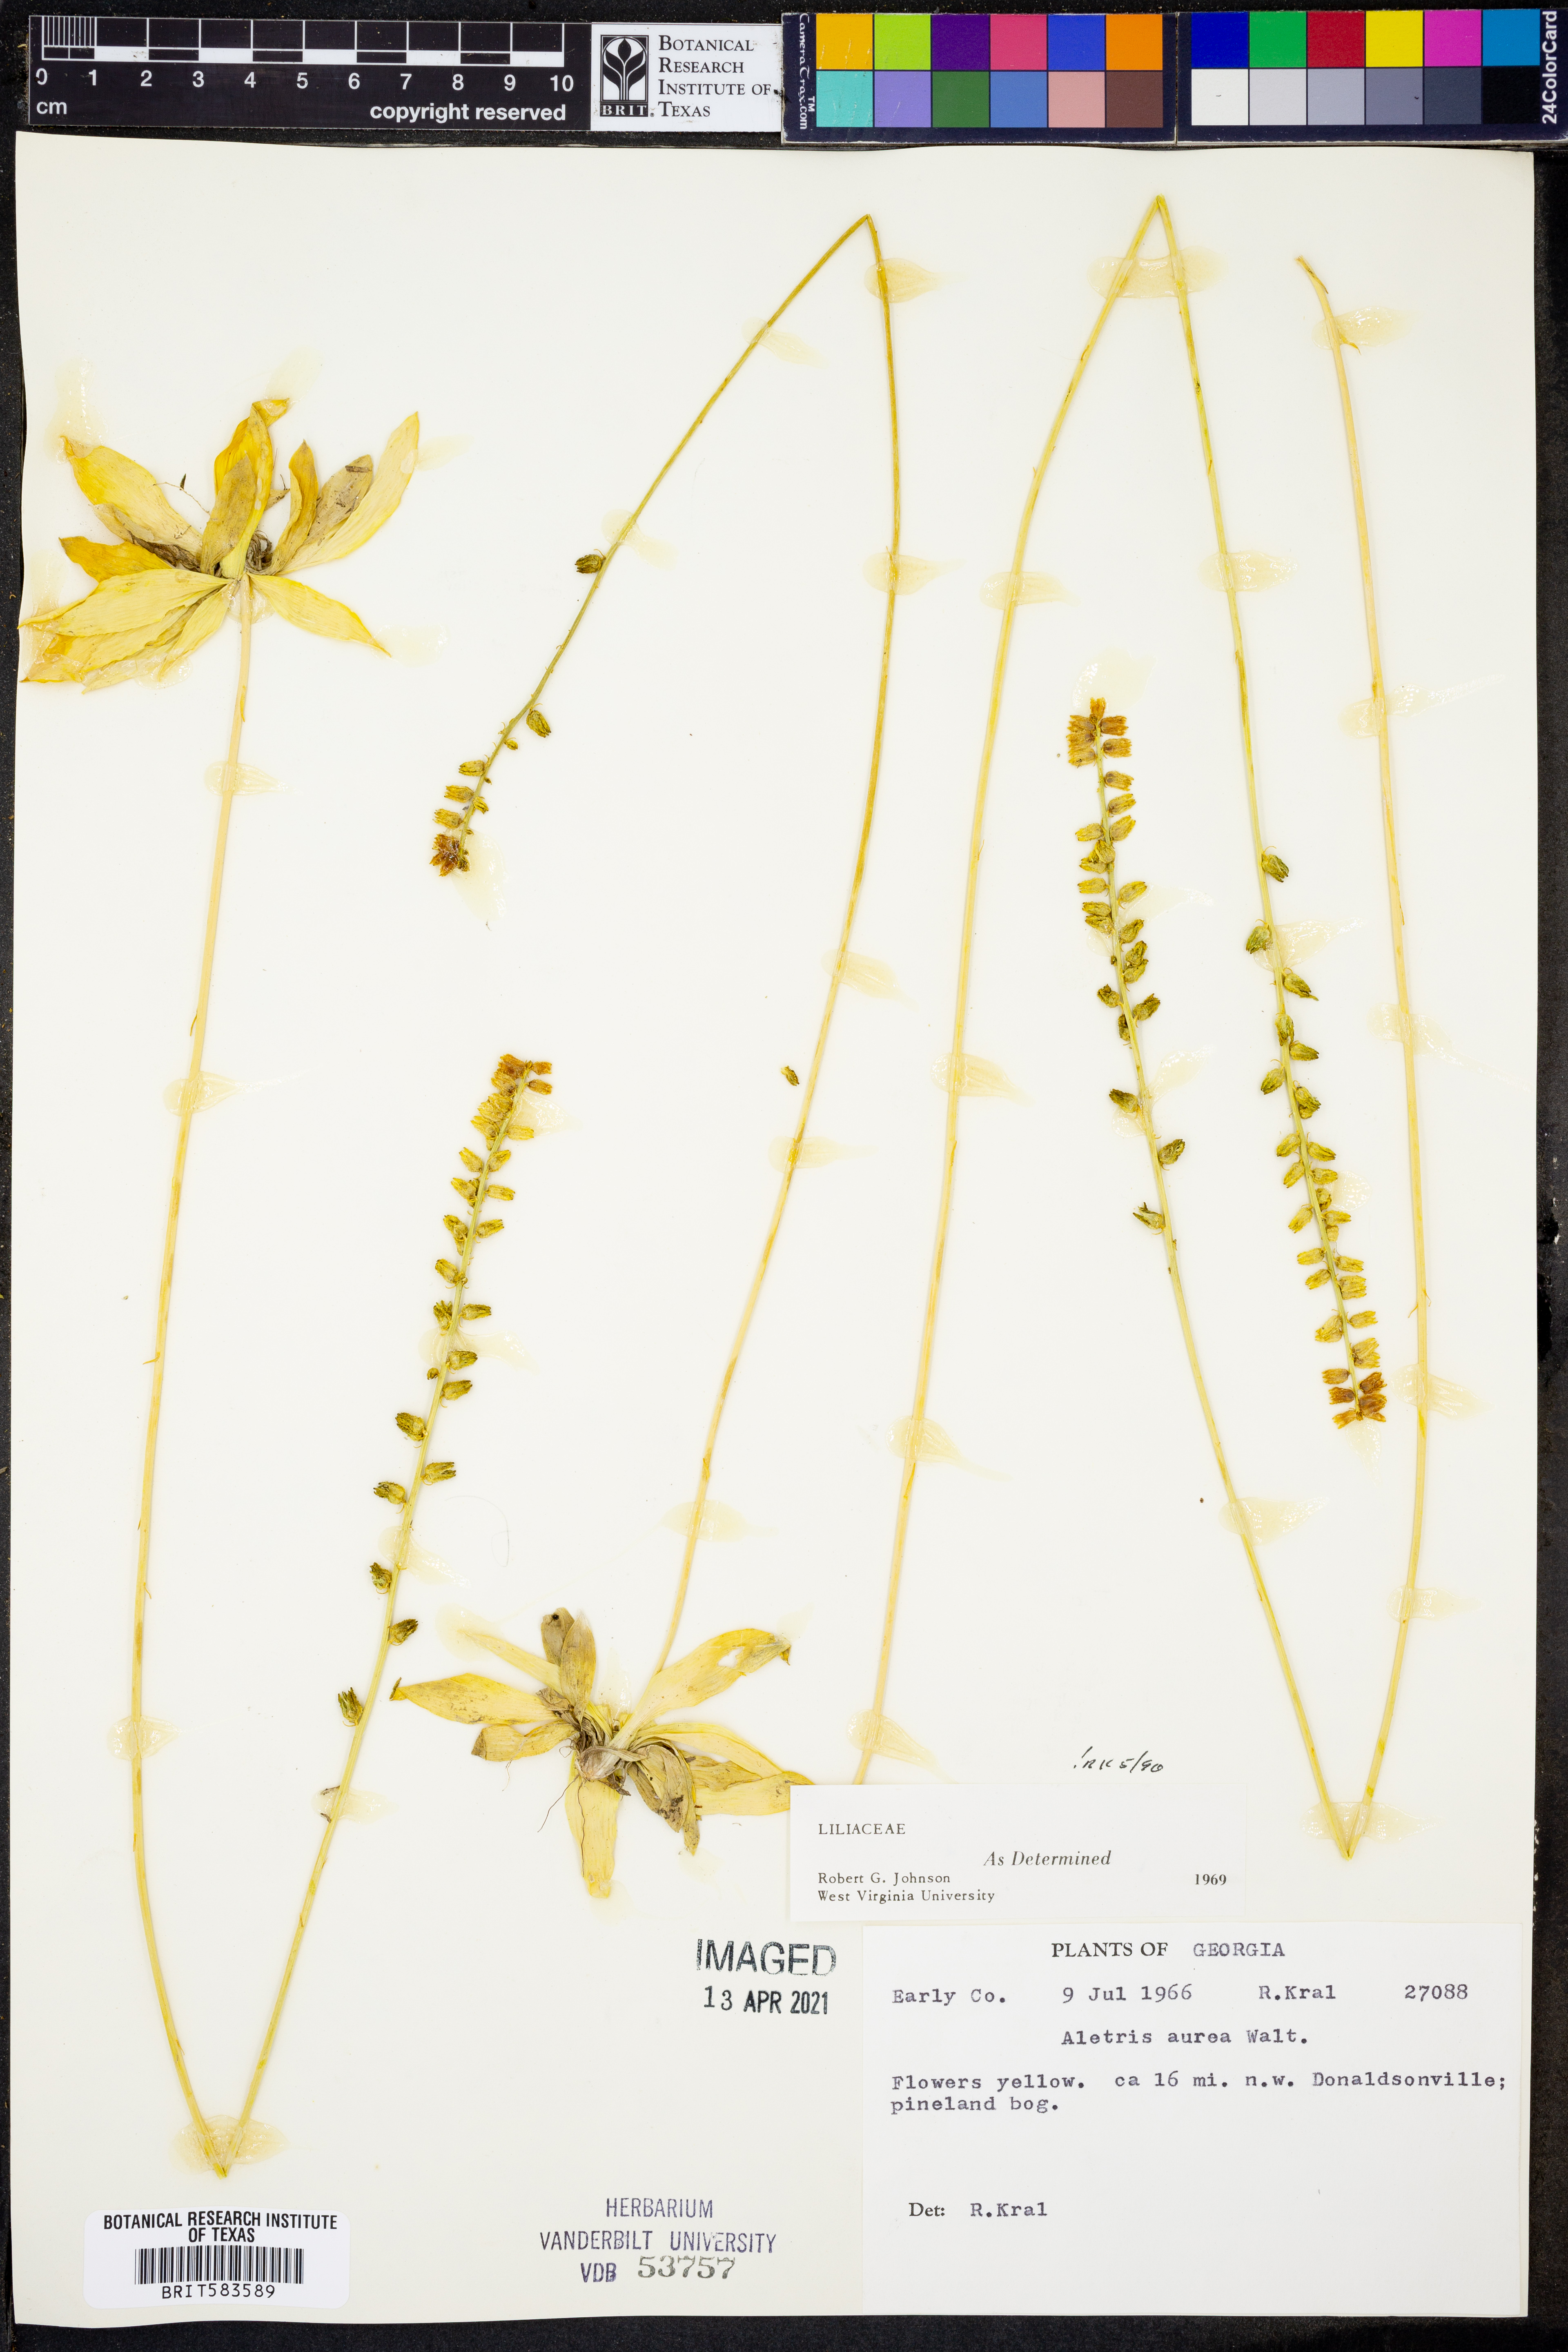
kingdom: Plantae
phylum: Tracheophyta
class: Liliopsida
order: Dioscoreales
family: Nartheciaceae
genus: Aletris
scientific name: Aletris aurea
